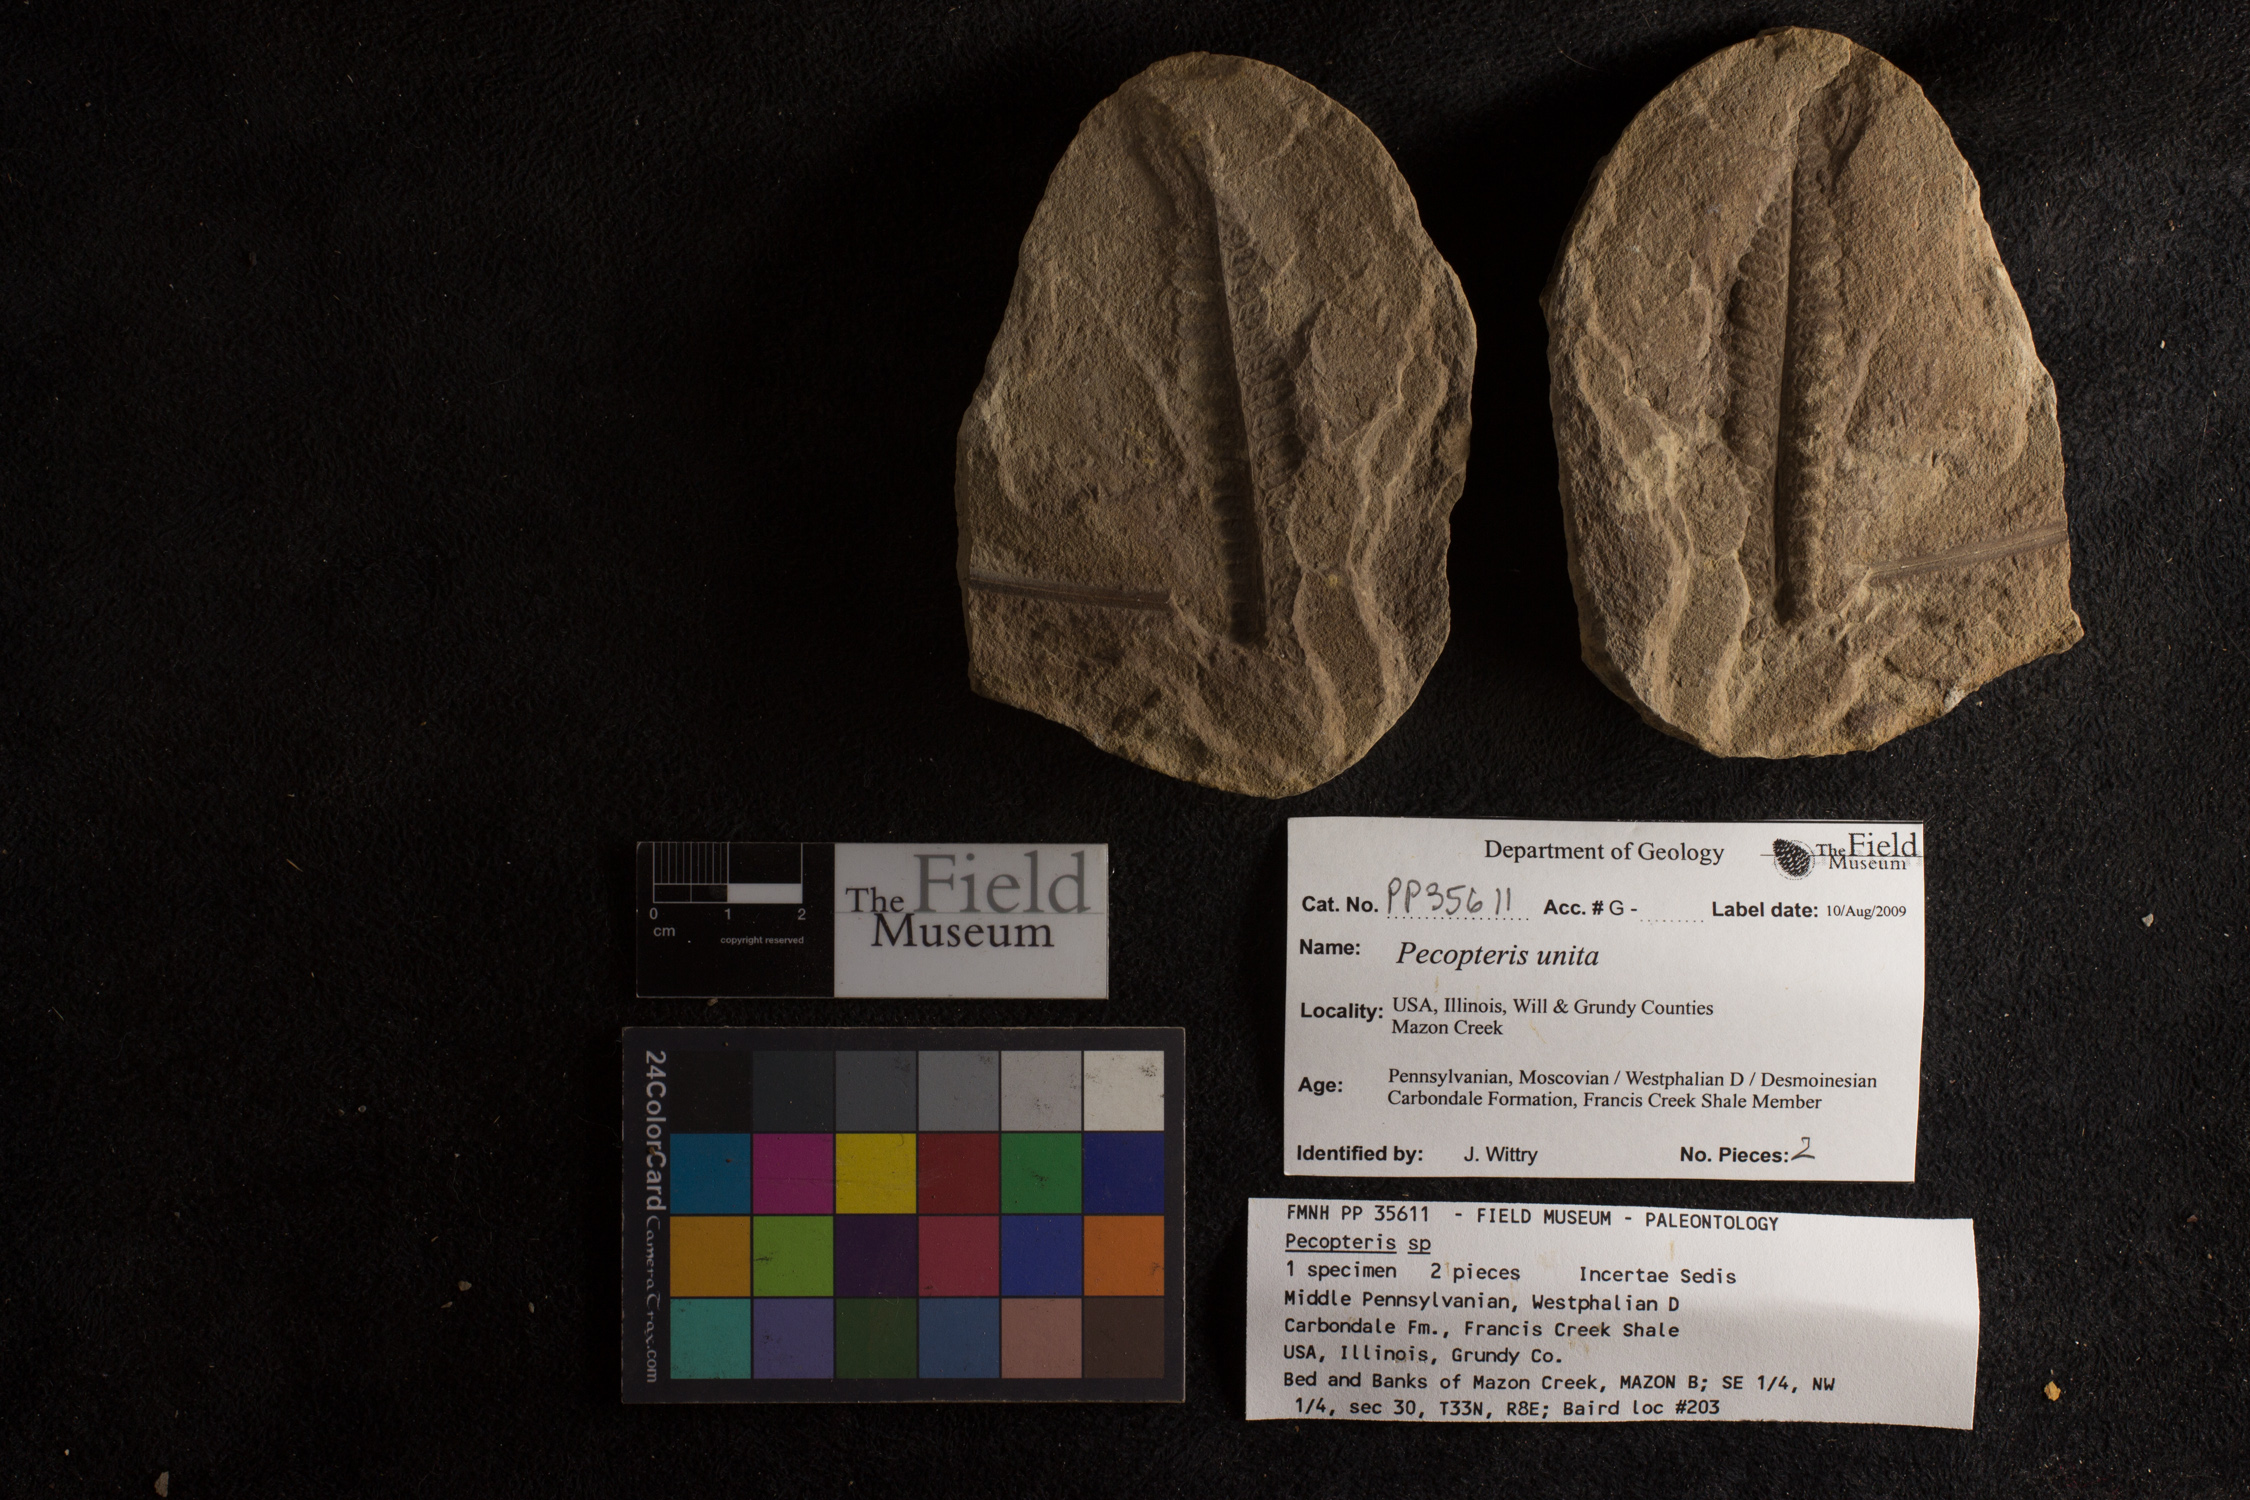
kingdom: Plantae
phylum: Tracheophyta
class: Polypodiopsida
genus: Diplazites
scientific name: Diplazites
